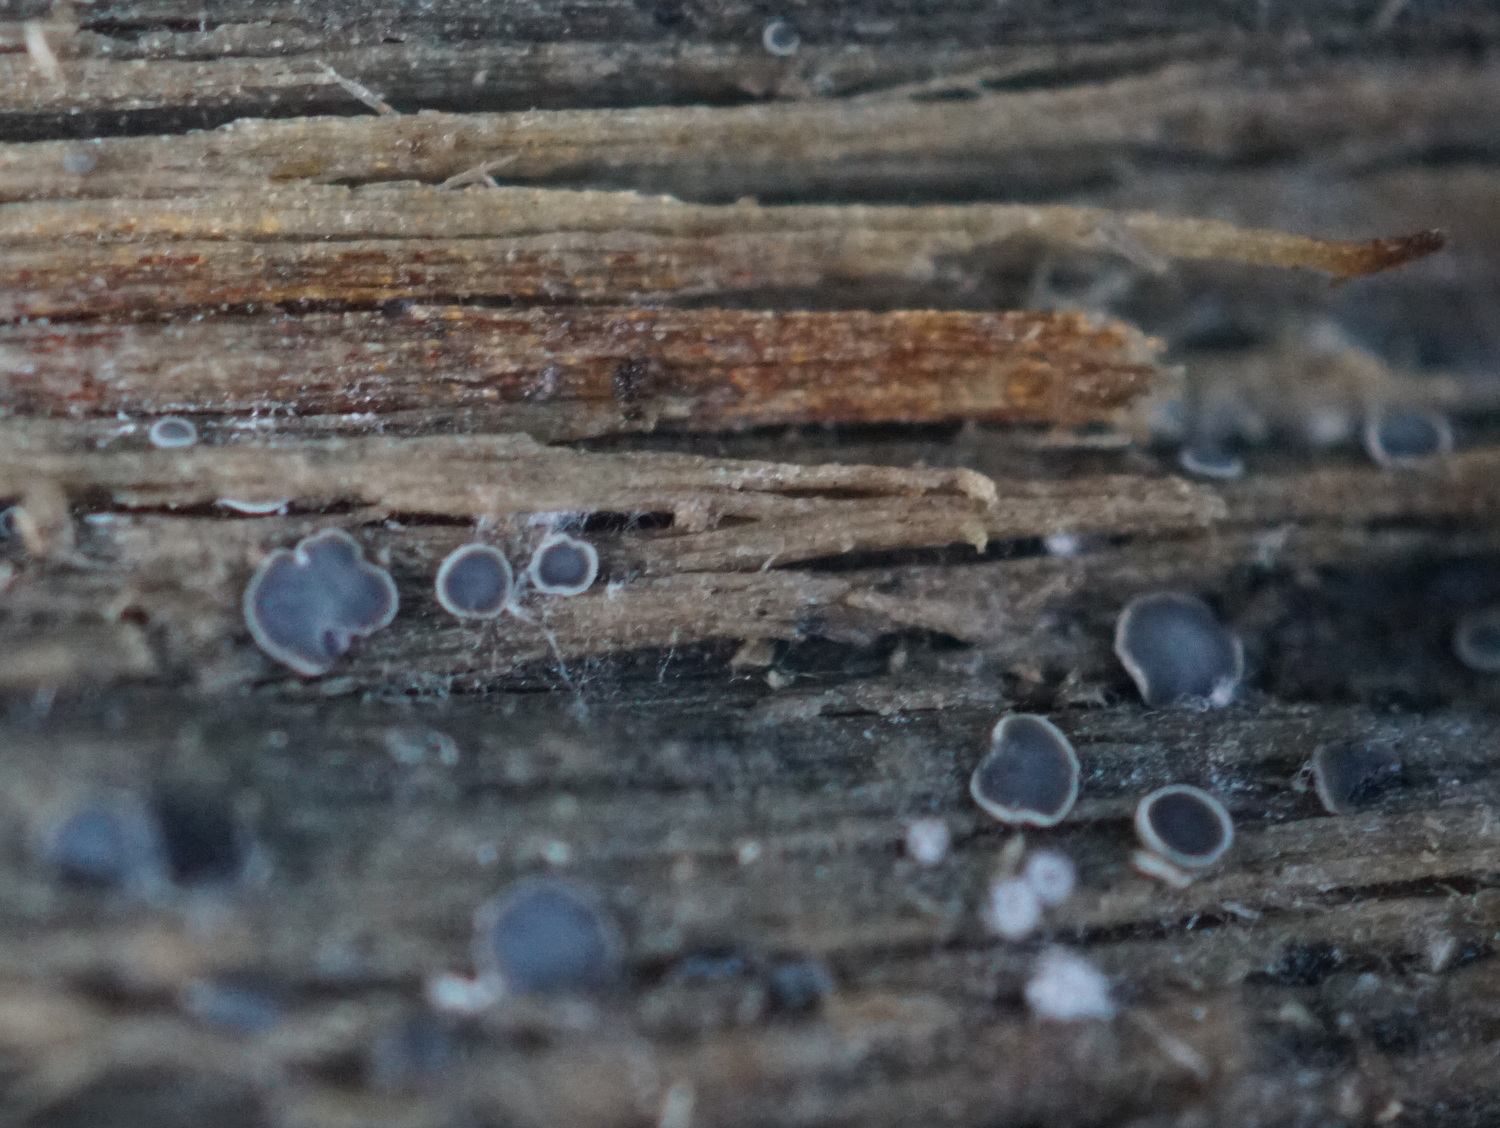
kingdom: Fungi
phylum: Ascomycota
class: Leotiomycetes
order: Helotiales
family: Mollisiaceae
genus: Mollisia
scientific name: Mollisia
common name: gråskive
